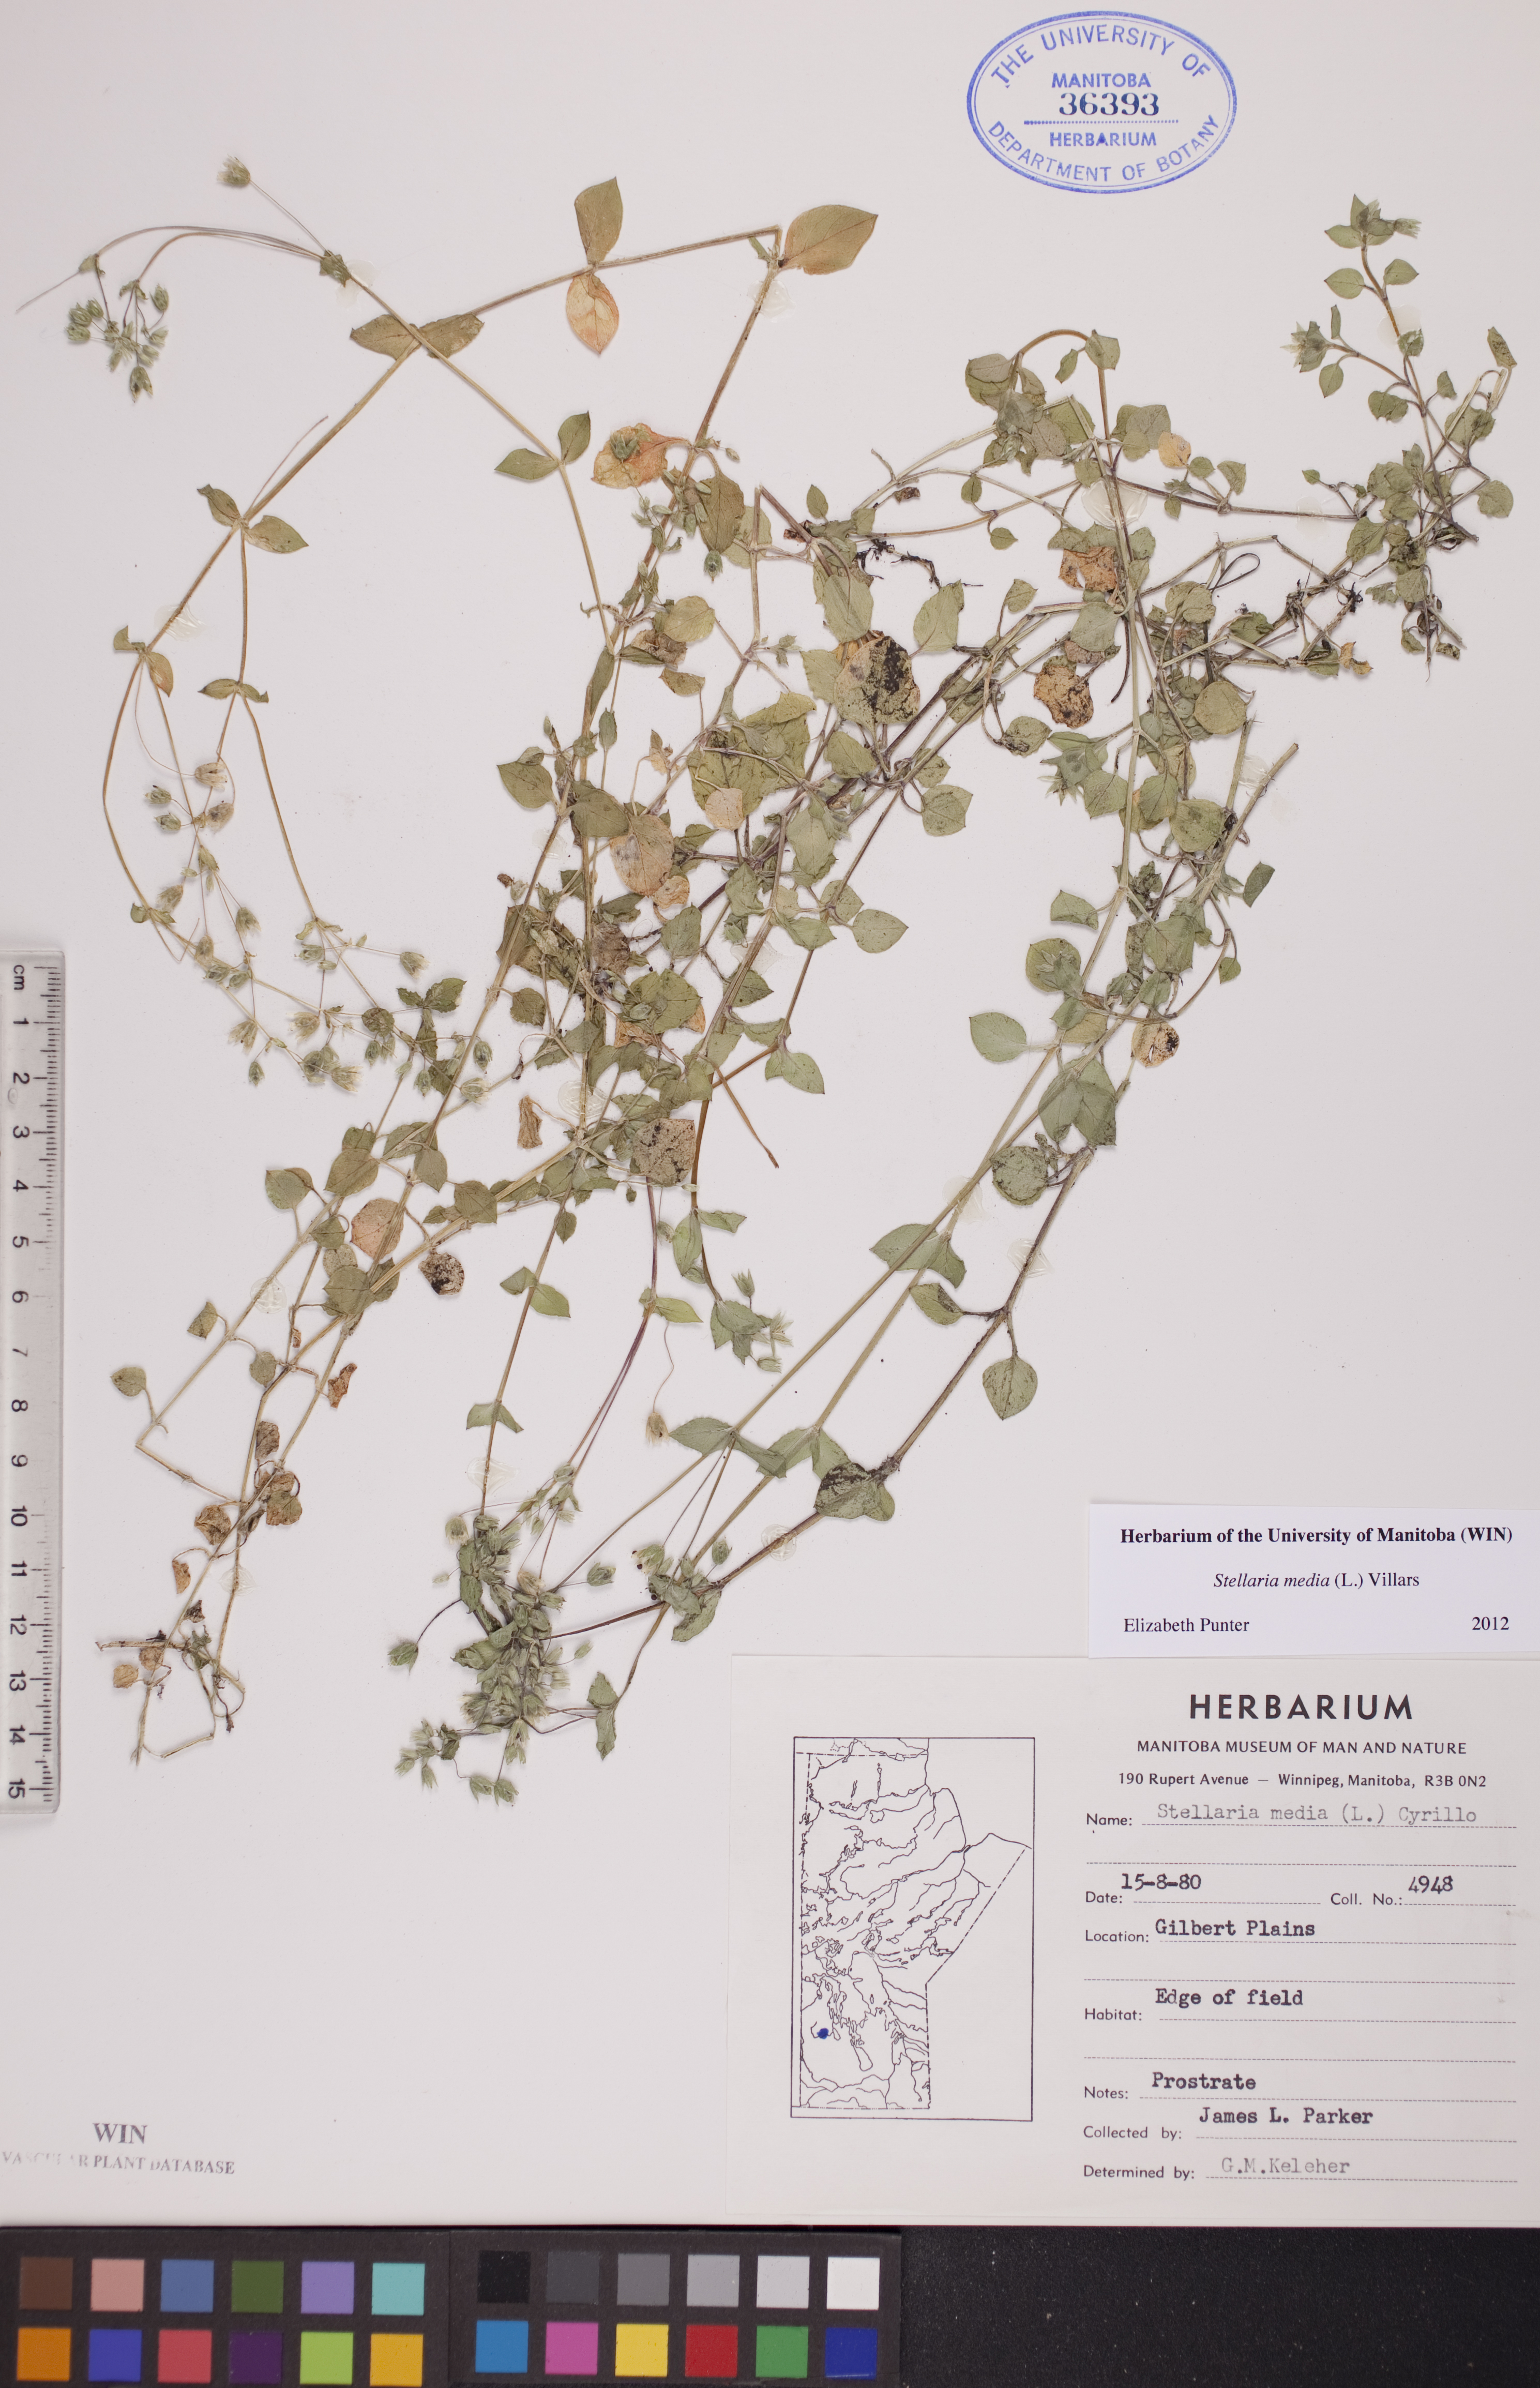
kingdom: Plantae
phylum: Tracheophyta
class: Magnoliopsida
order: Caryophyllales
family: Caryophyllaceae
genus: Stellaria
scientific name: Stellaria media
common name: Common chickweed
